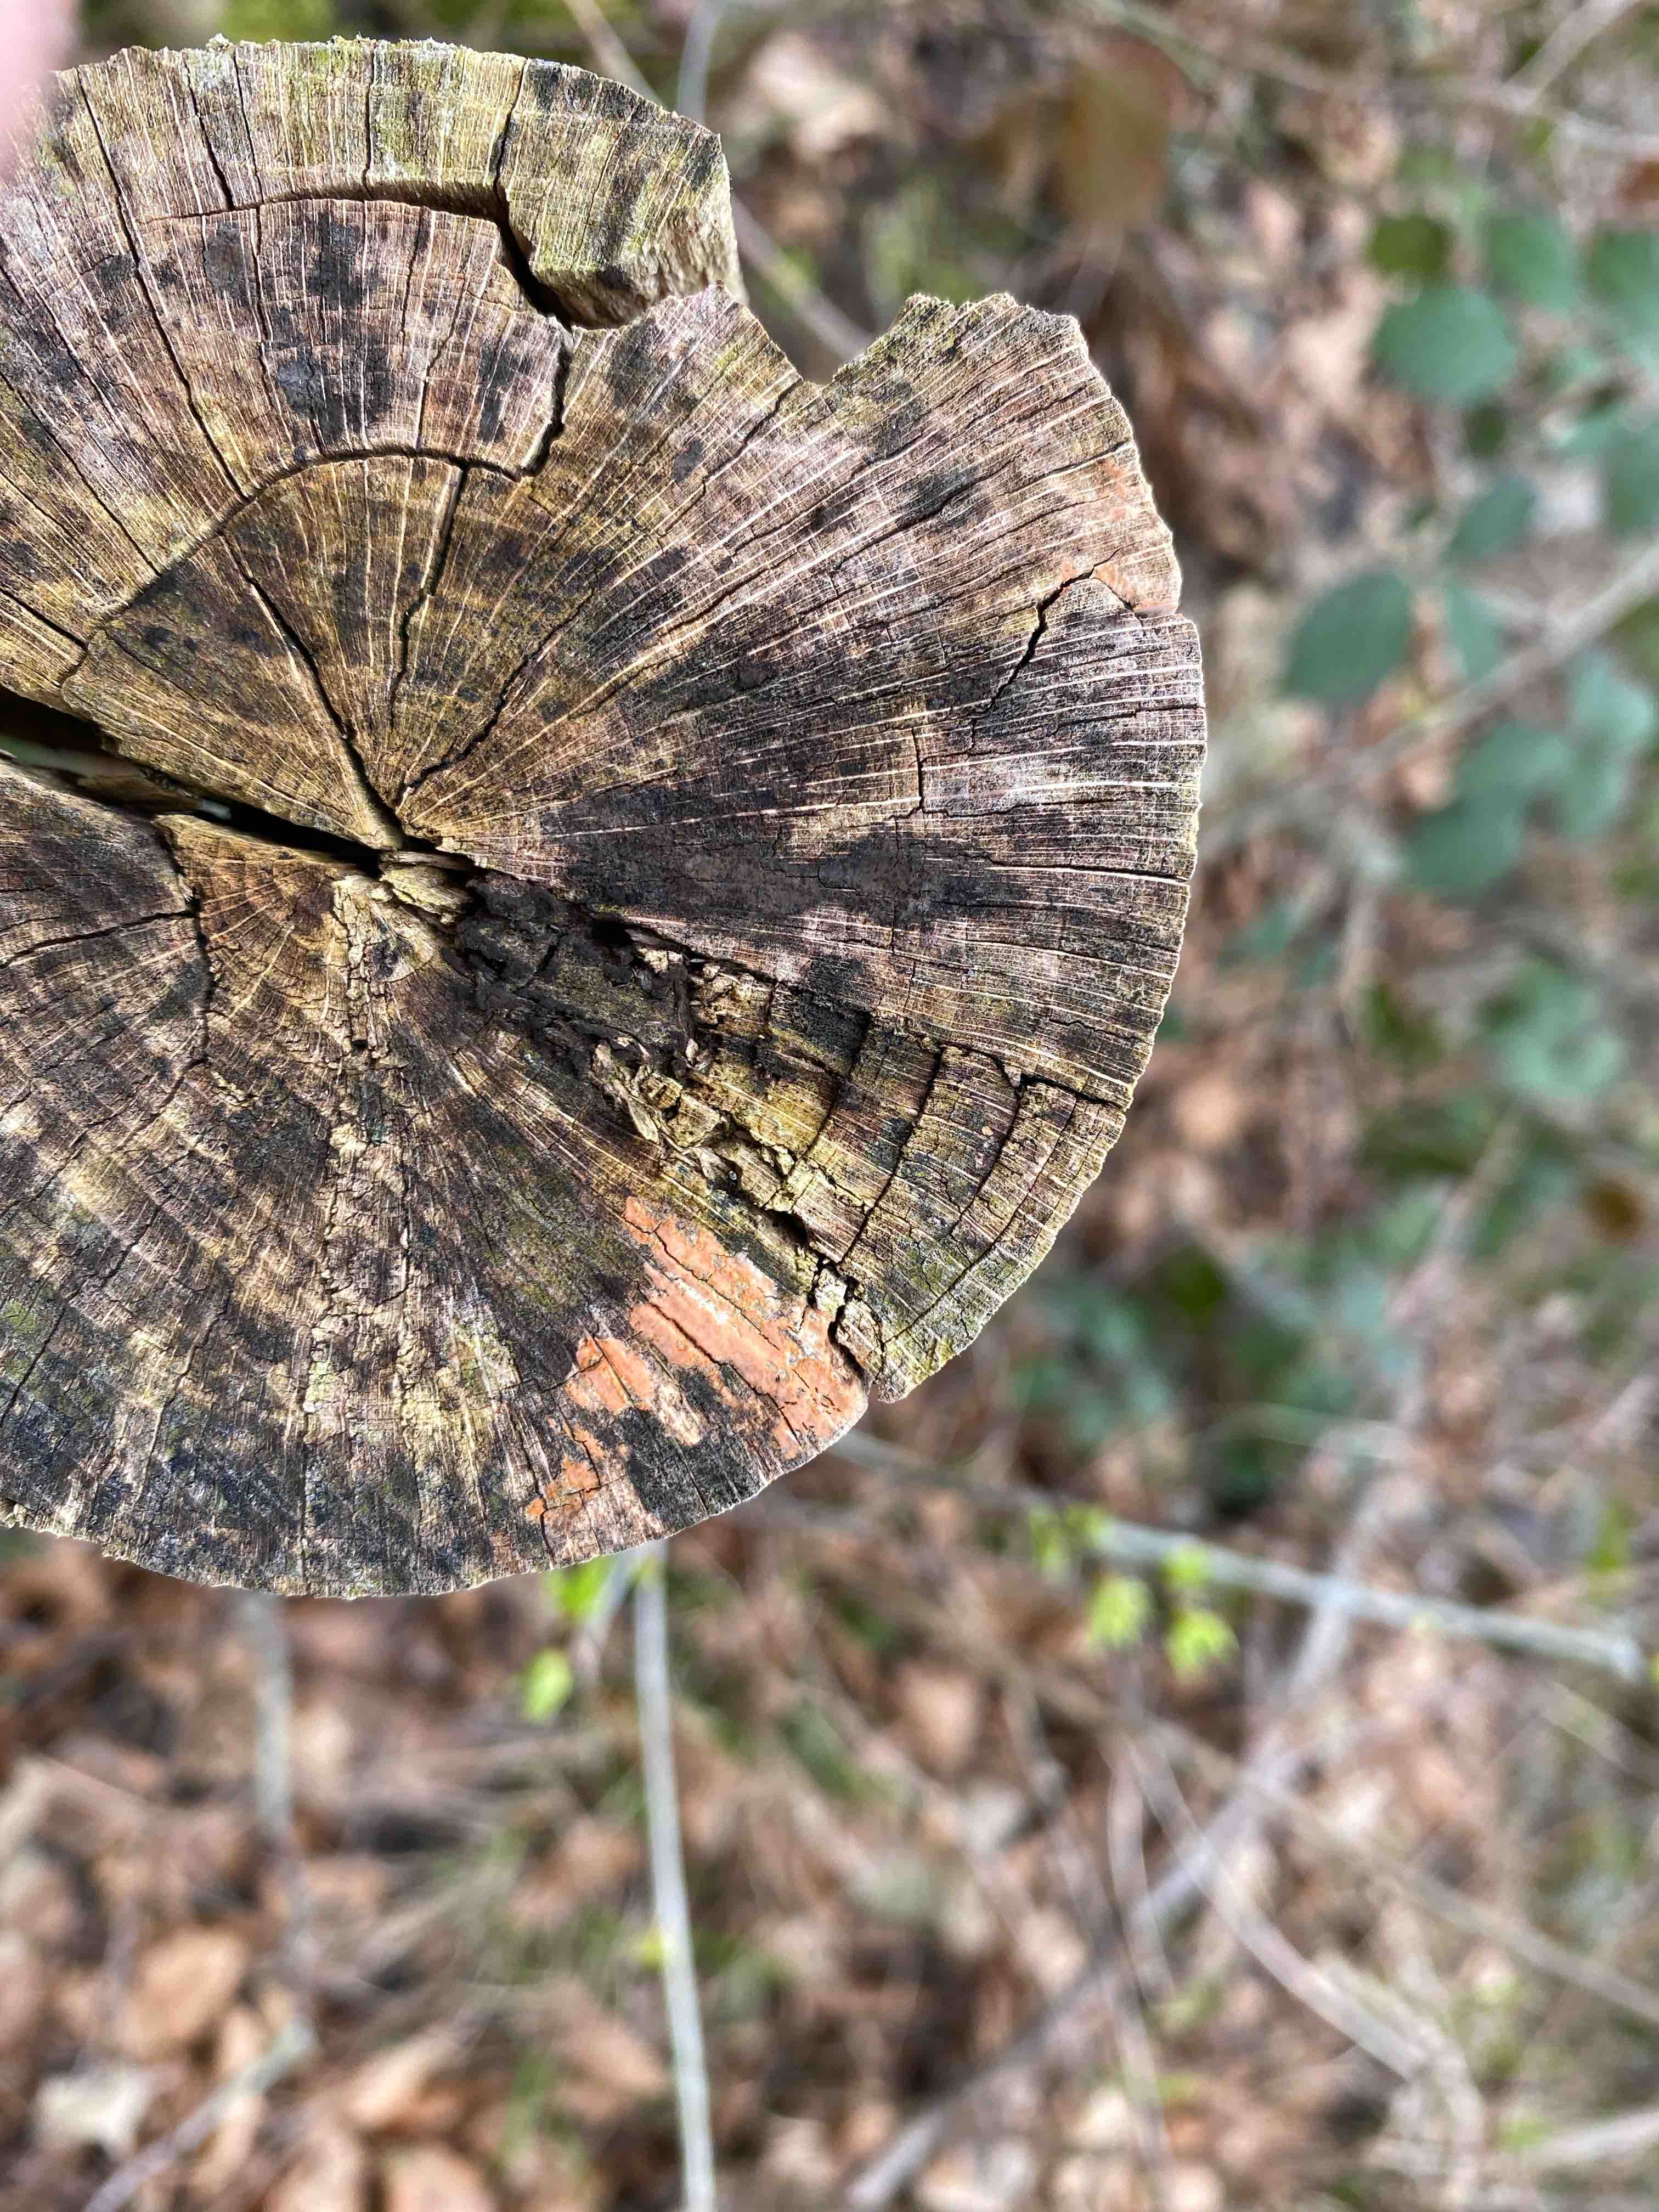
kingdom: Fungi
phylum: Basidiomycota
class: Agaricomycetes
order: Russulales
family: Peniophoraceae
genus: Peniophora
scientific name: Peniophora incarnata
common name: laksefarvet voksskind
